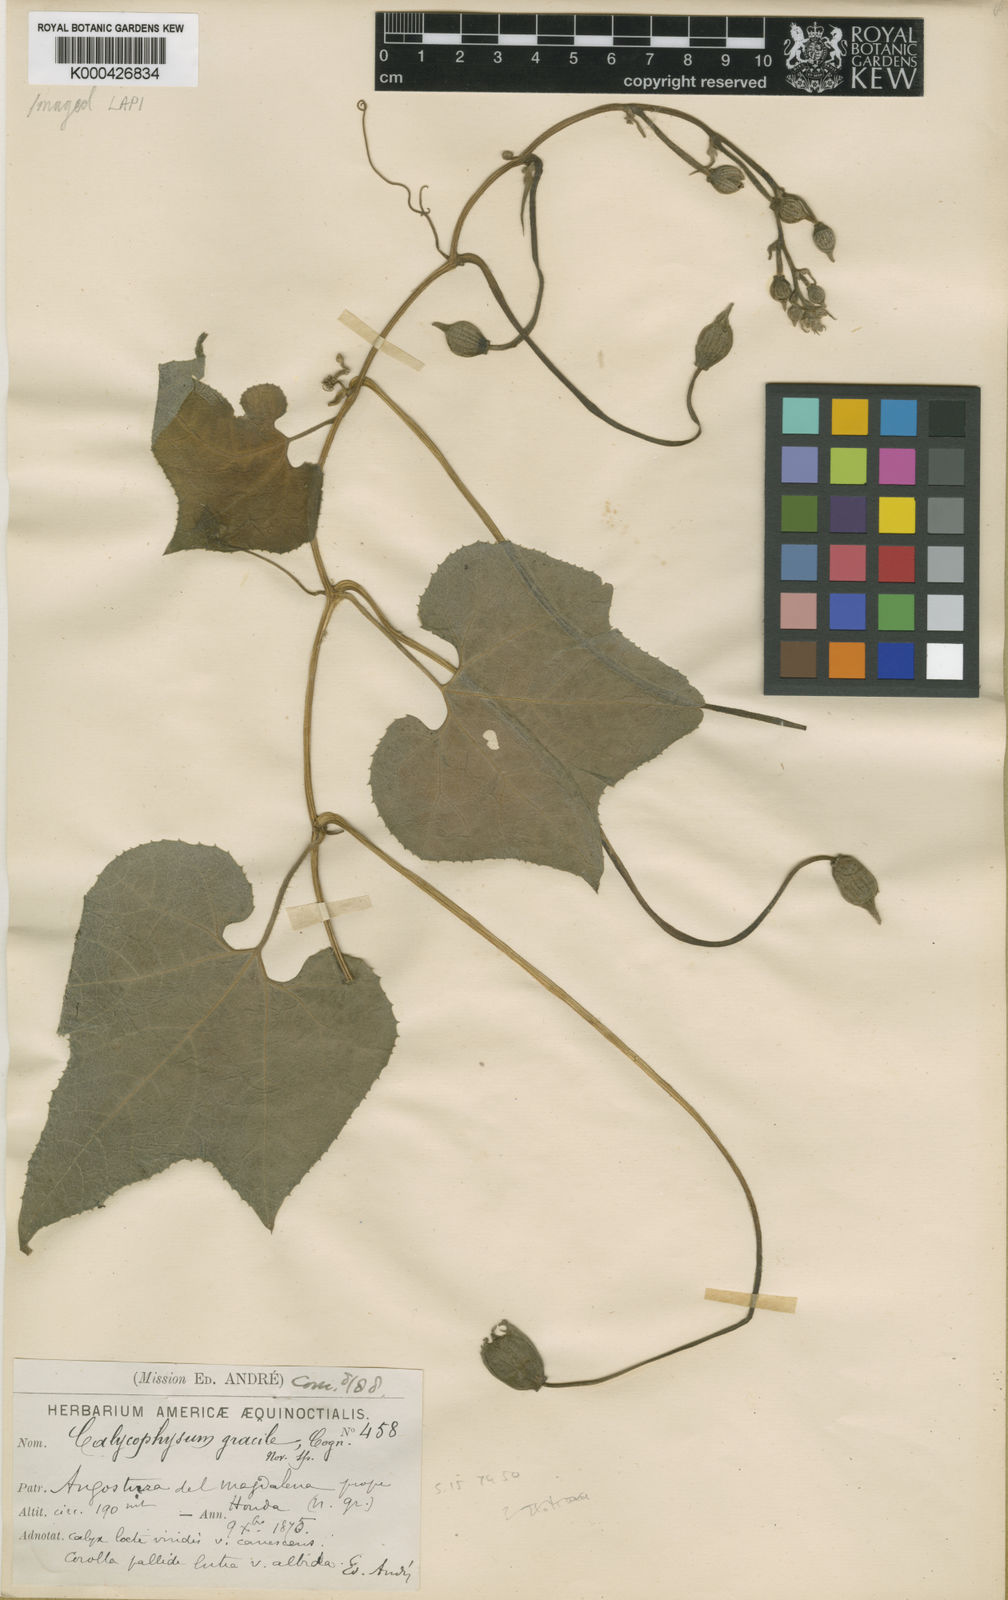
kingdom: Plantae
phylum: Tracheophyta
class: Magnoliopsida
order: Cucurbitales
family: Cucurbitaceae
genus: Calycophysum
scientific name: Calycophysum gracile
